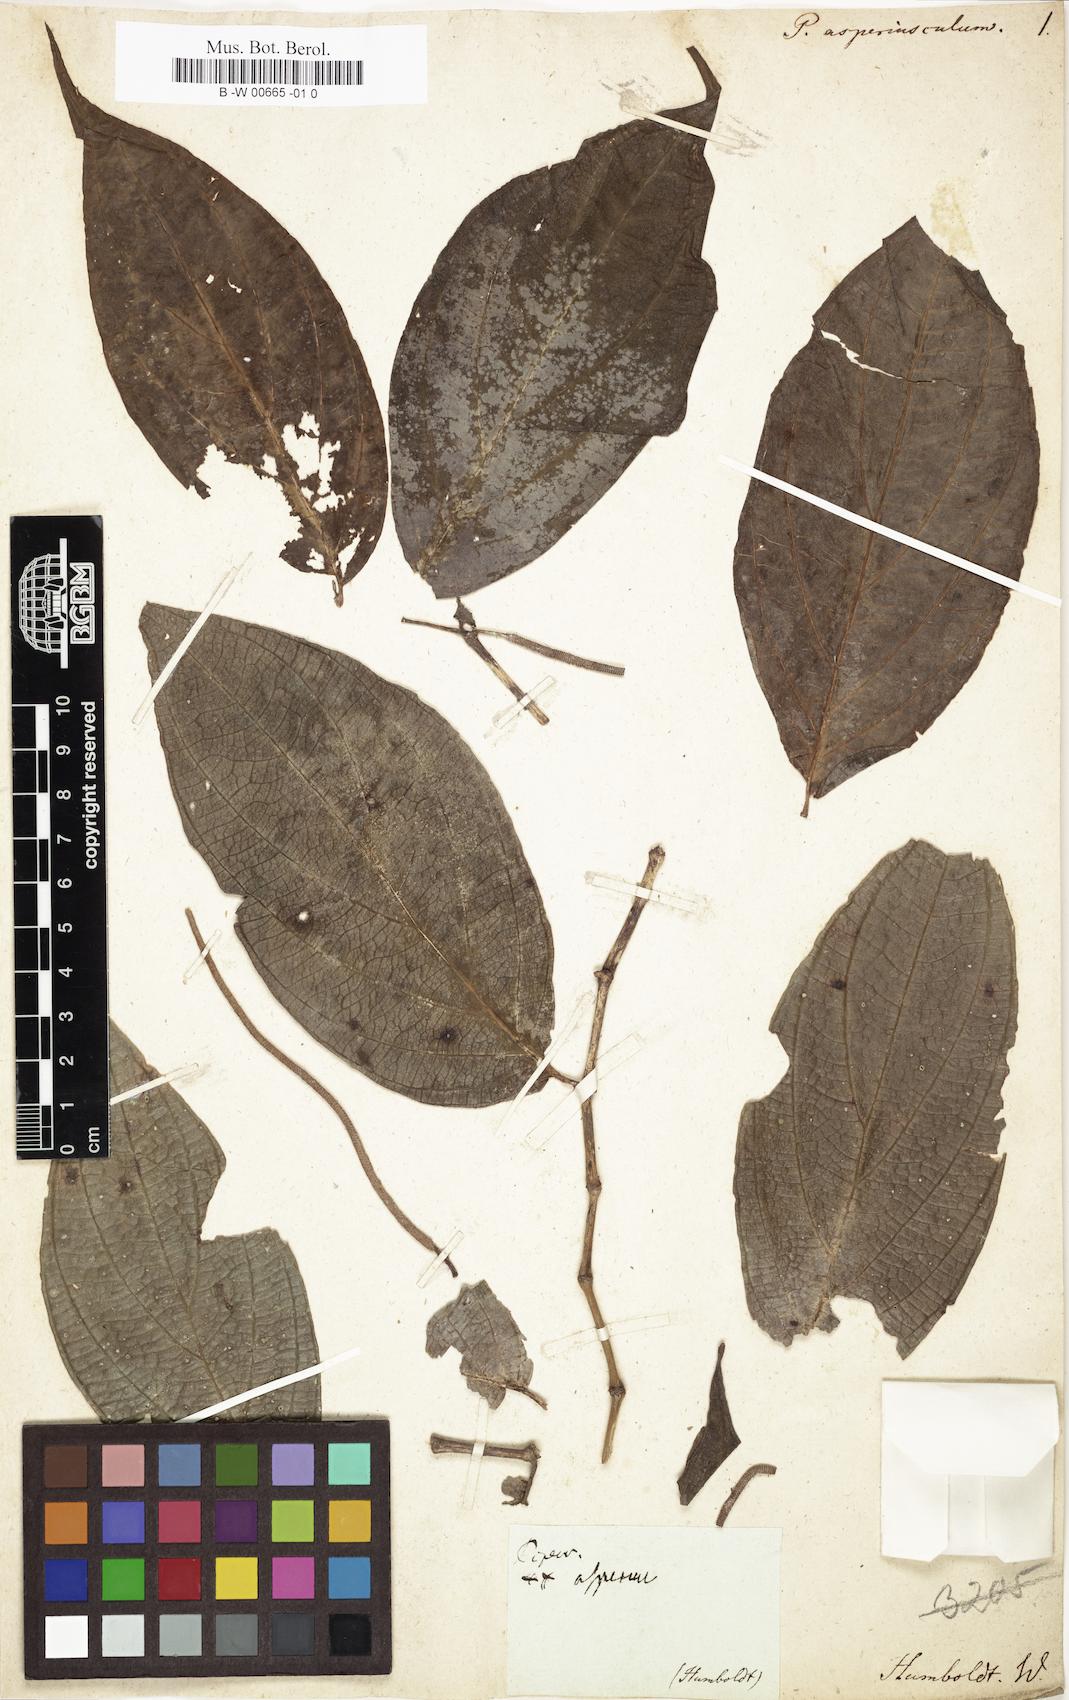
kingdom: Plantae
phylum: Tracheophyta
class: Magnoliopsida
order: Piperales
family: Piperaceae
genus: Piper
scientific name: Piper asperiusculum
